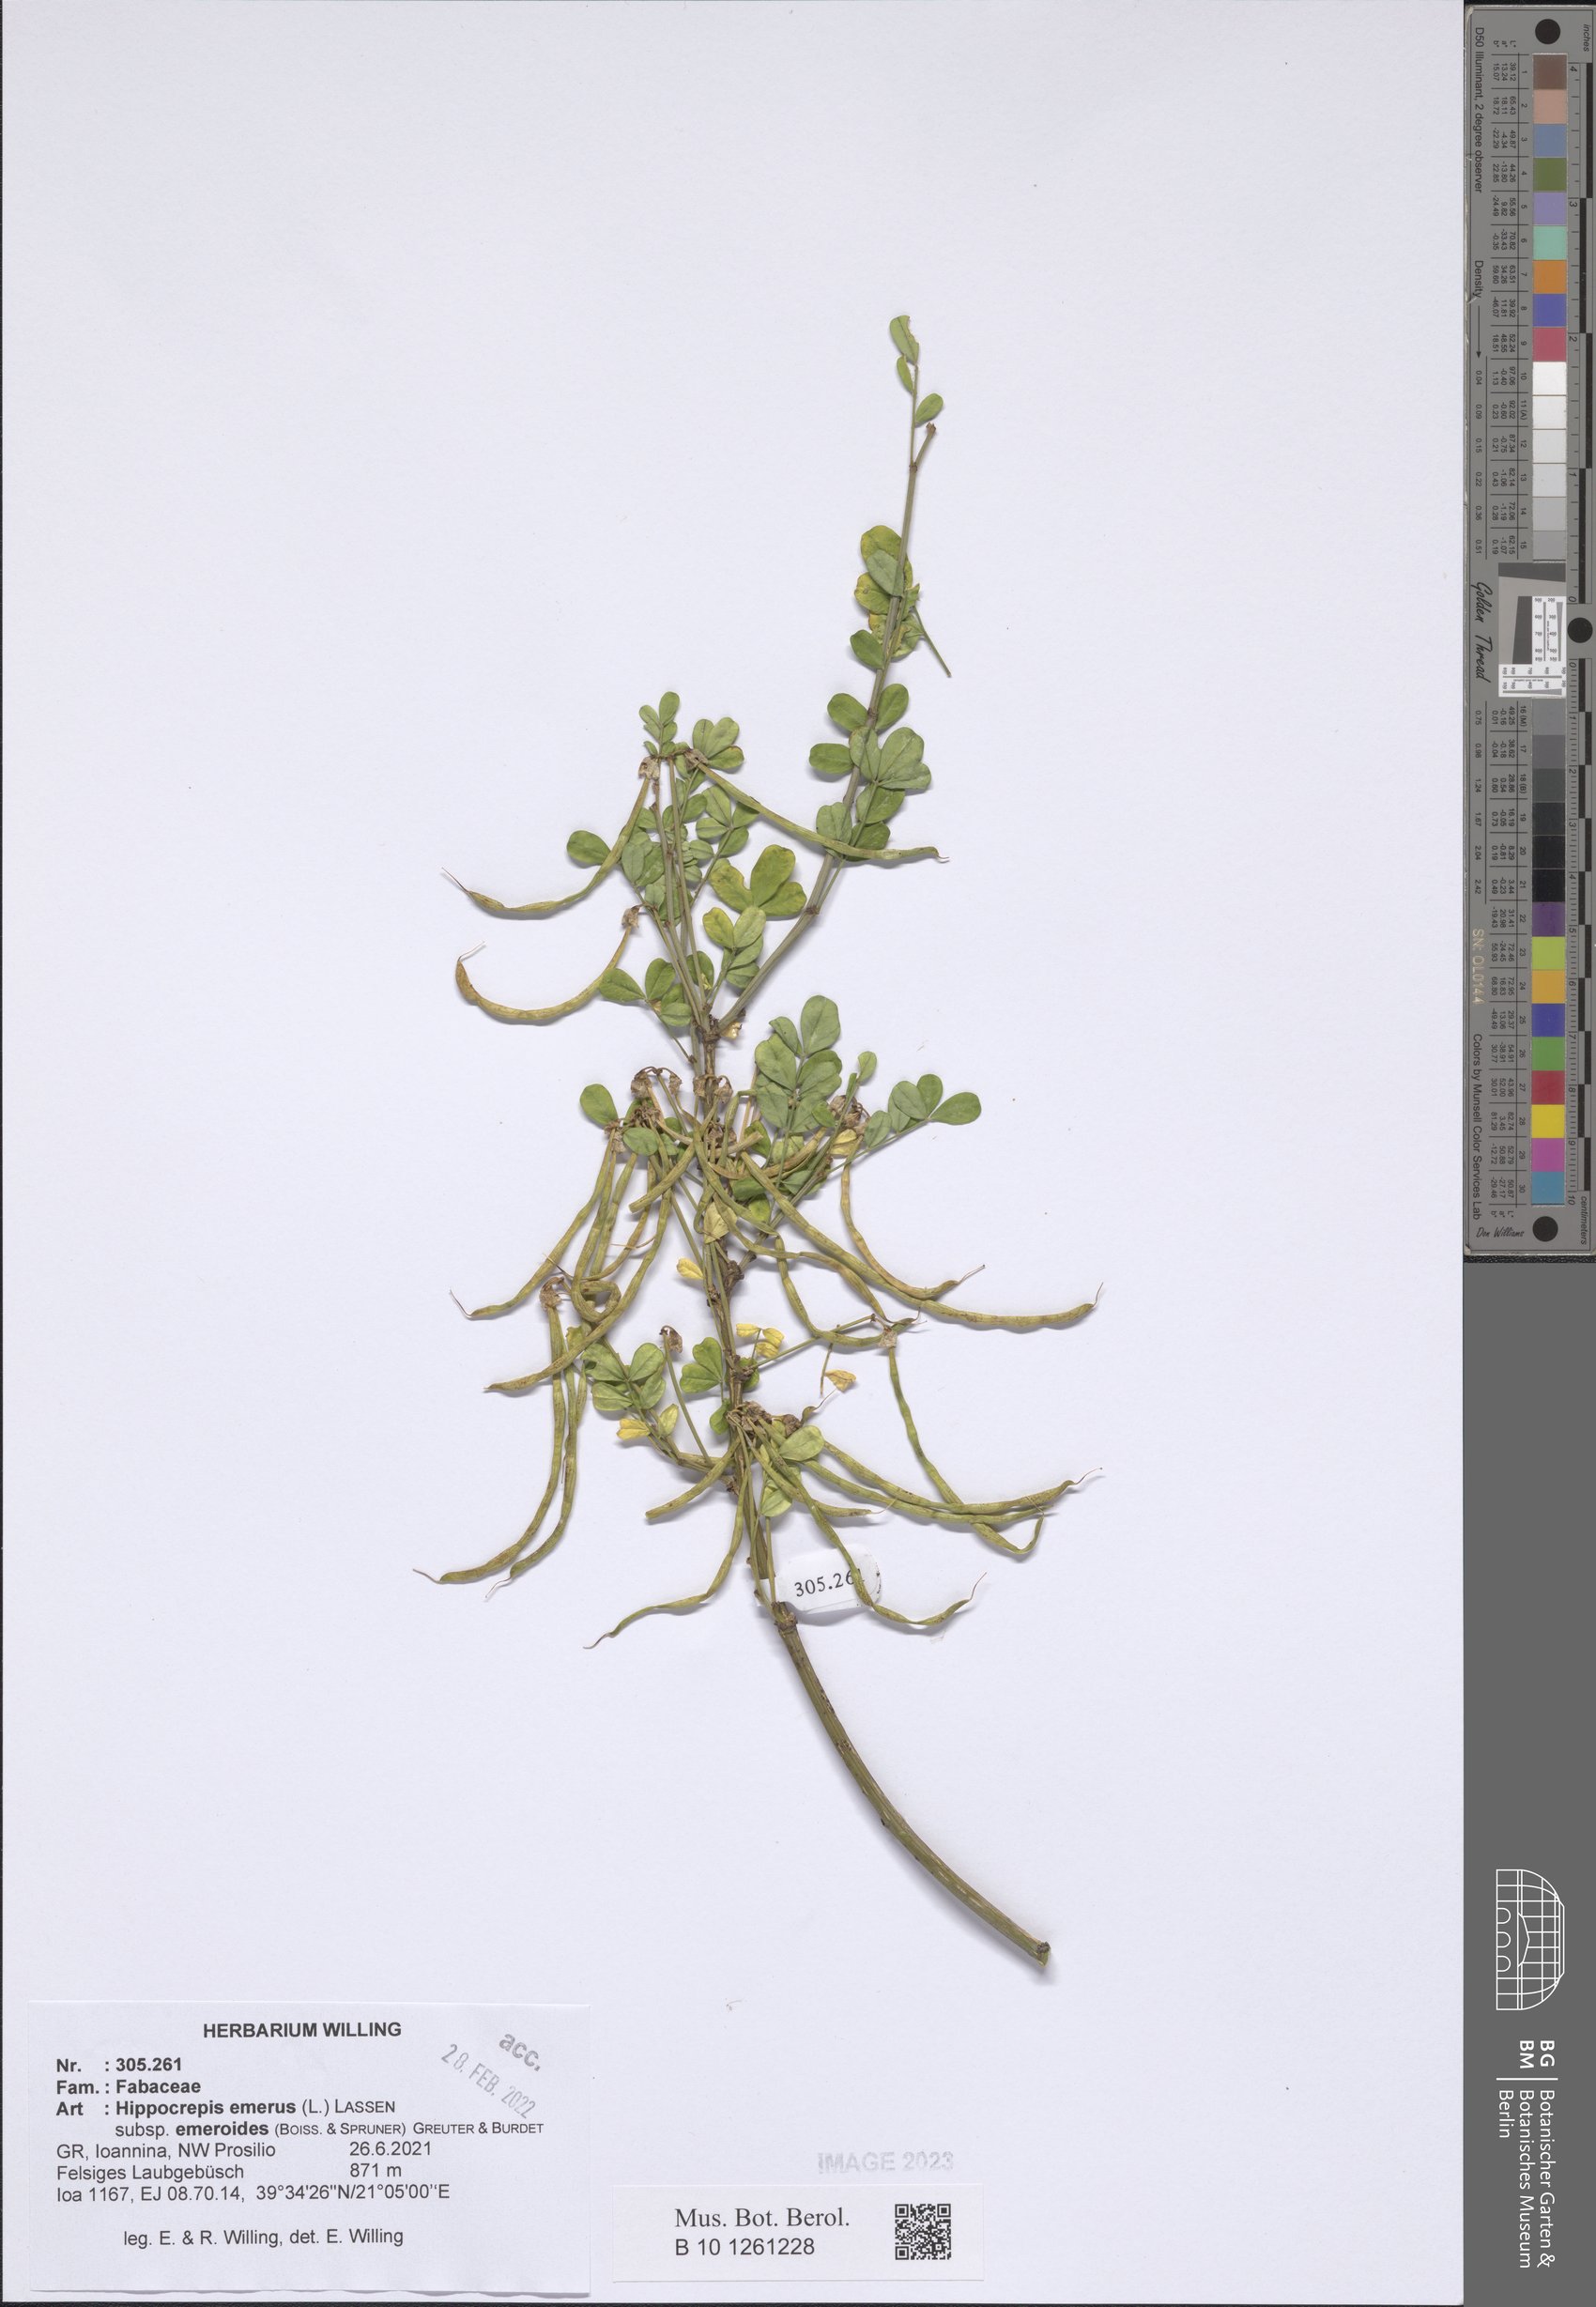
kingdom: Plantae
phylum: Tracheophyta
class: Magnoliopsida
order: Fabales
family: Fabaceae
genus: Hippocrepis
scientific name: Hippocrepis emerus
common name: Scorpion senna
